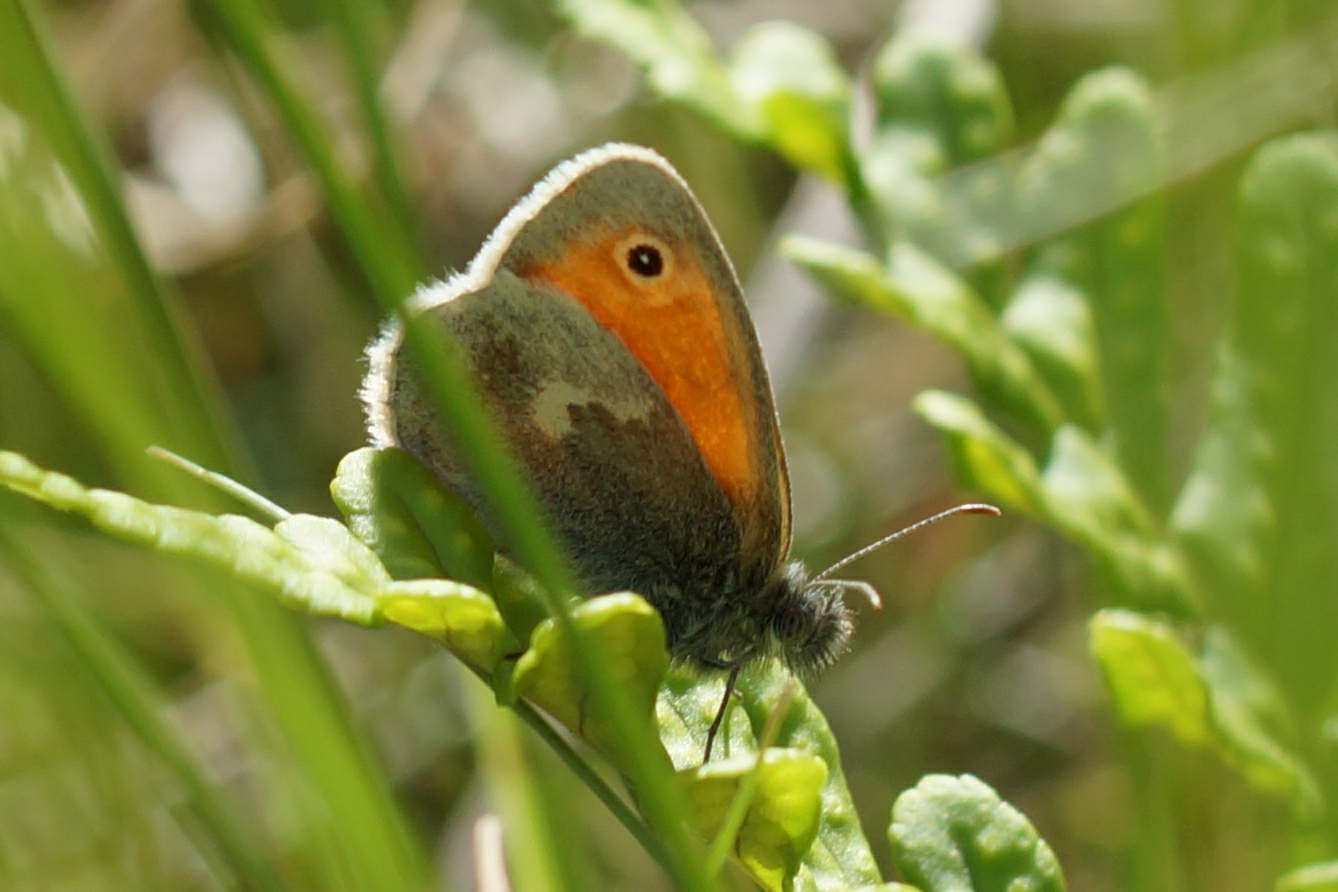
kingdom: Animalia
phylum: Arthropoda
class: Insecta
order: Lepidoptera
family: Nymphalidae
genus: Coenonympha
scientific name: Coenonympha pamphilus
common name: Okkergul randøje
